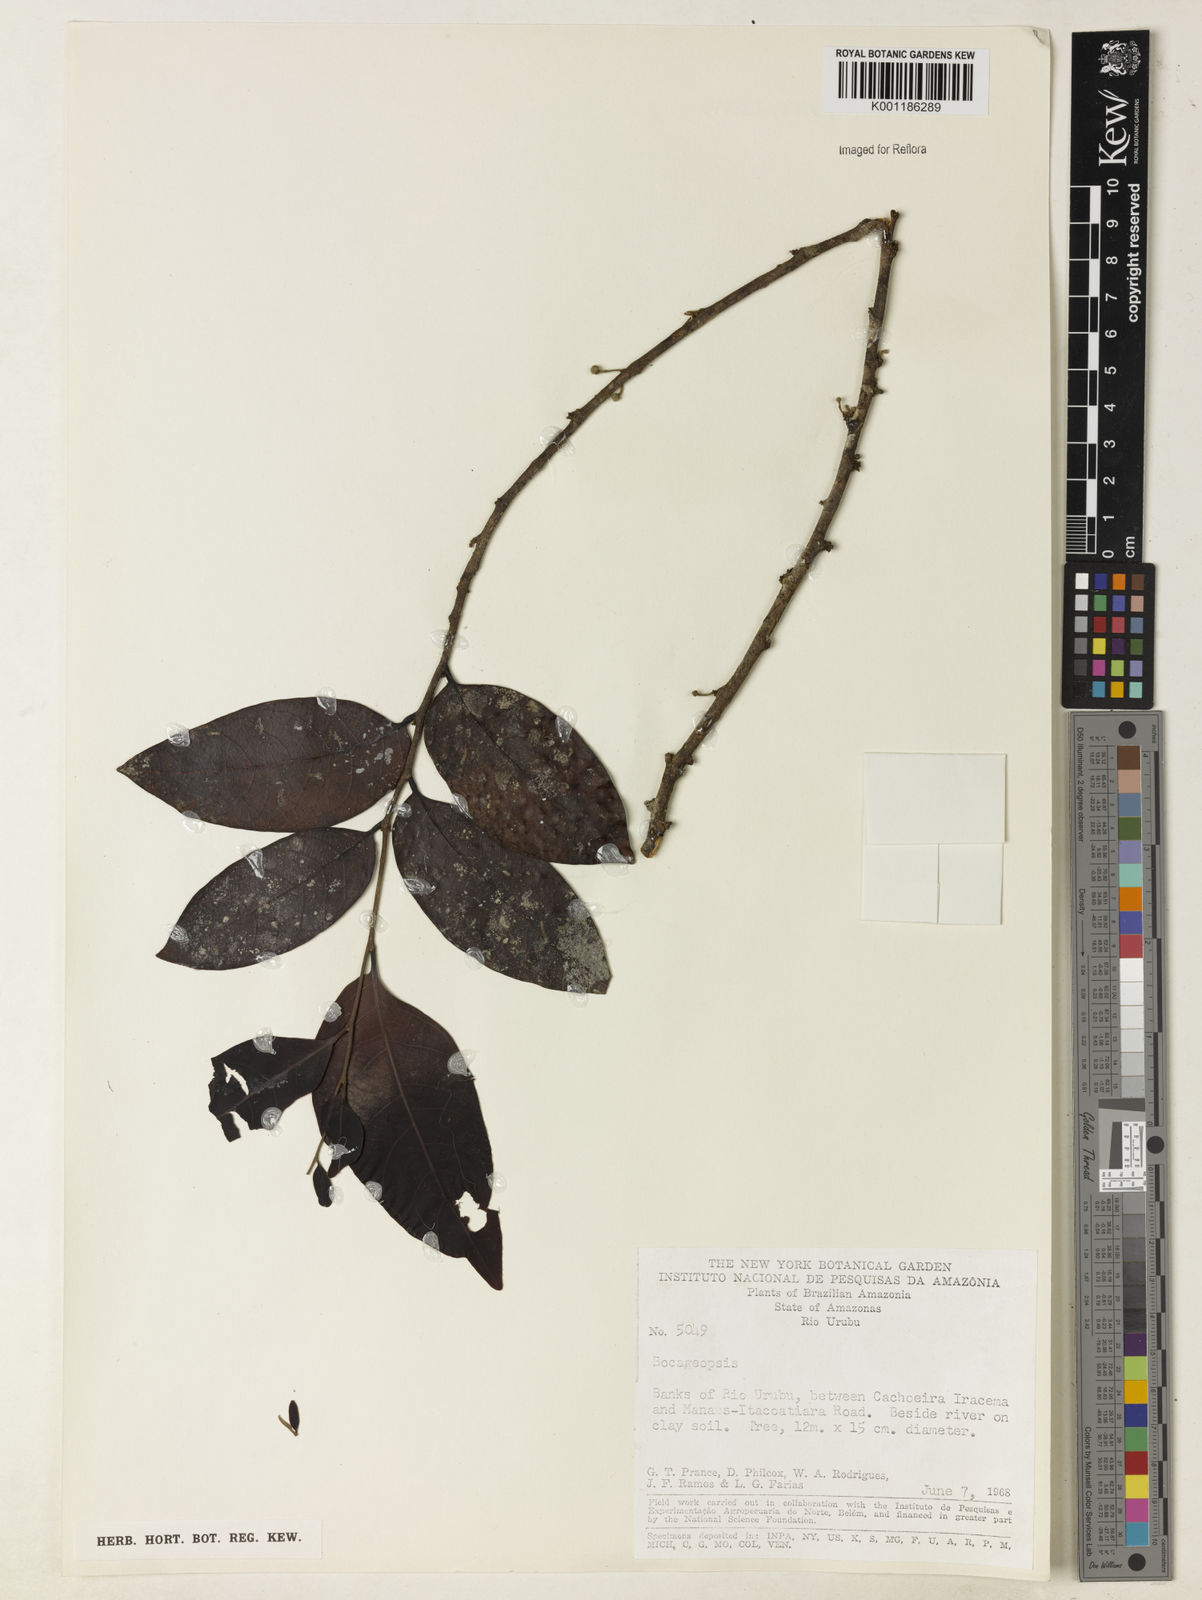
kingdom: Plantae
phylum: Tracheophyta
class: Magnoliopsida
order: Magnoliales
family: Annonaceae
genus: Bocageopsis
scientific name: Bocageopsis
